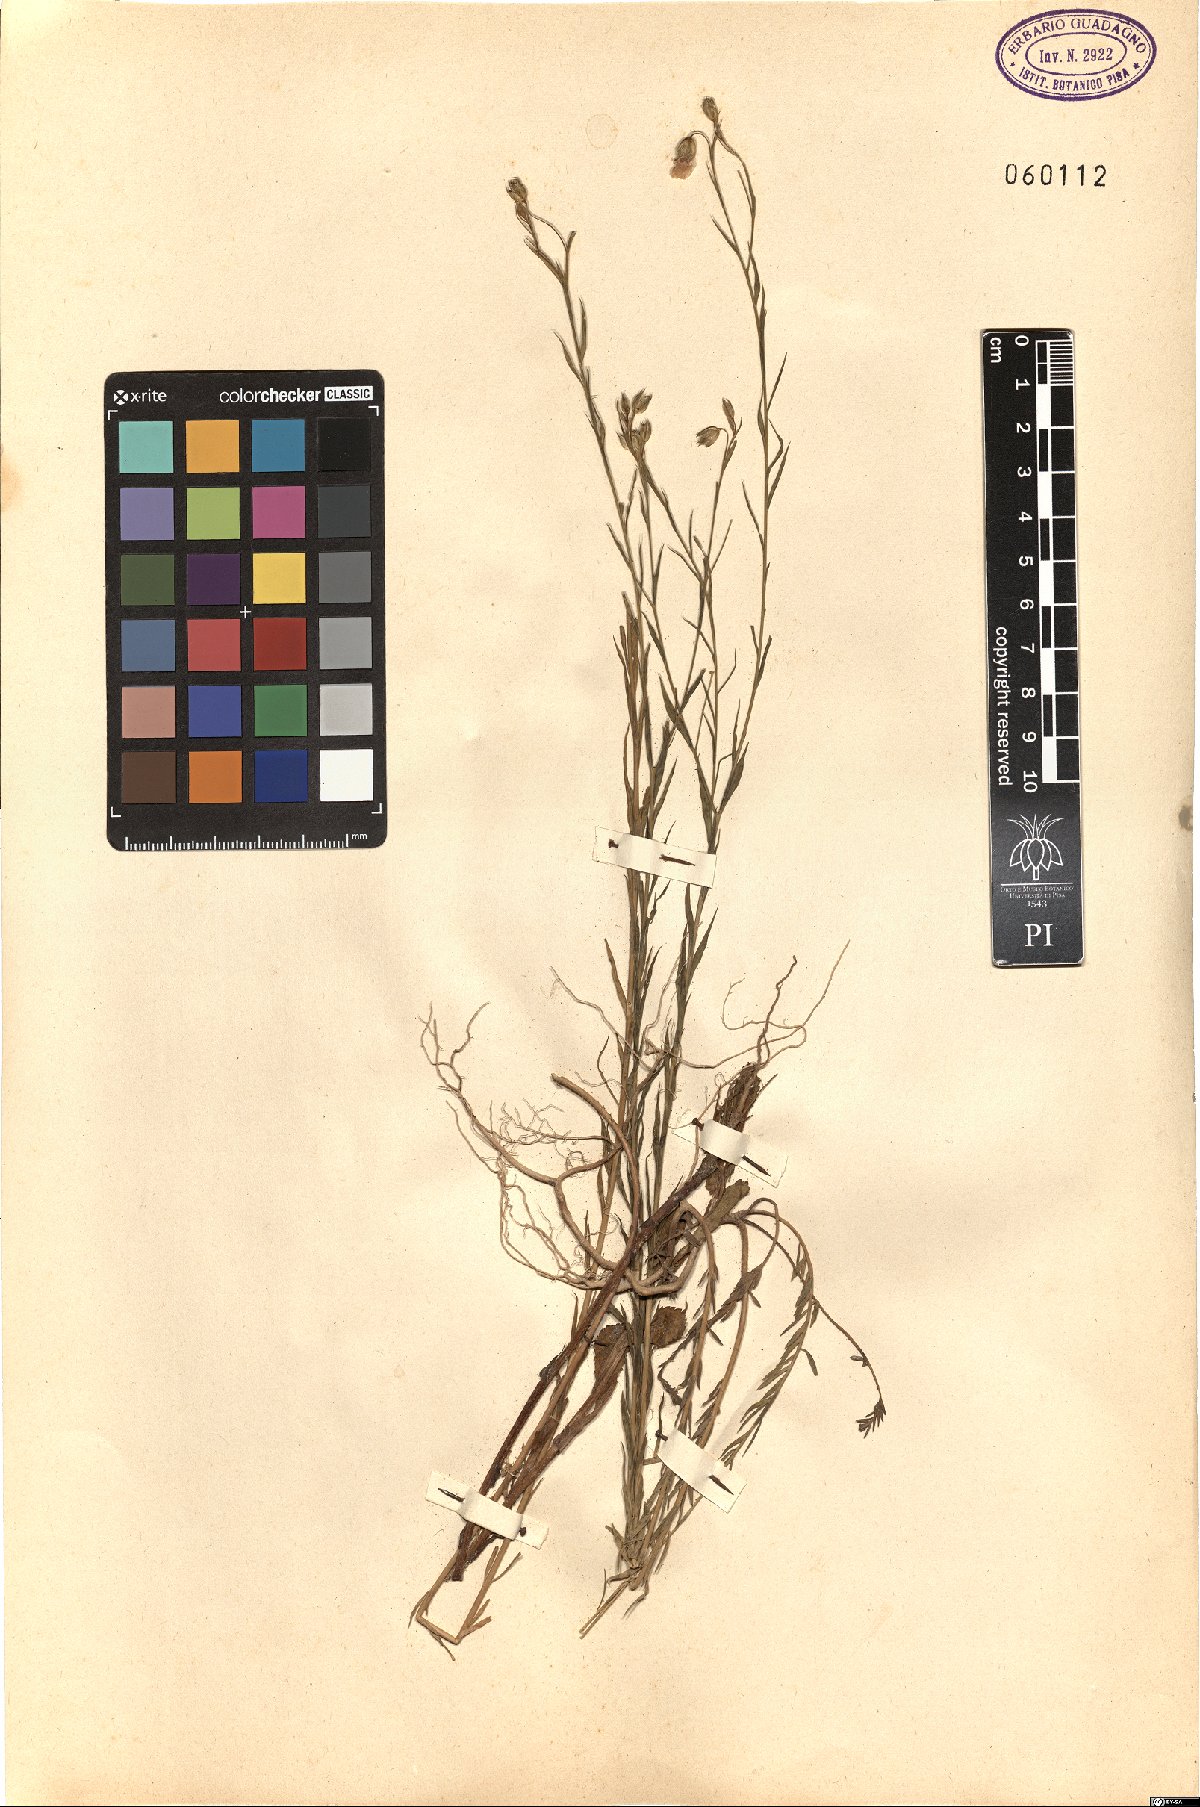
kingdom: Plantae
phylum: Tracheophyta
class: Magnoliopsida
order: Malpighiales
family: Linaceae
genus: Linum
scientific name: Linum
